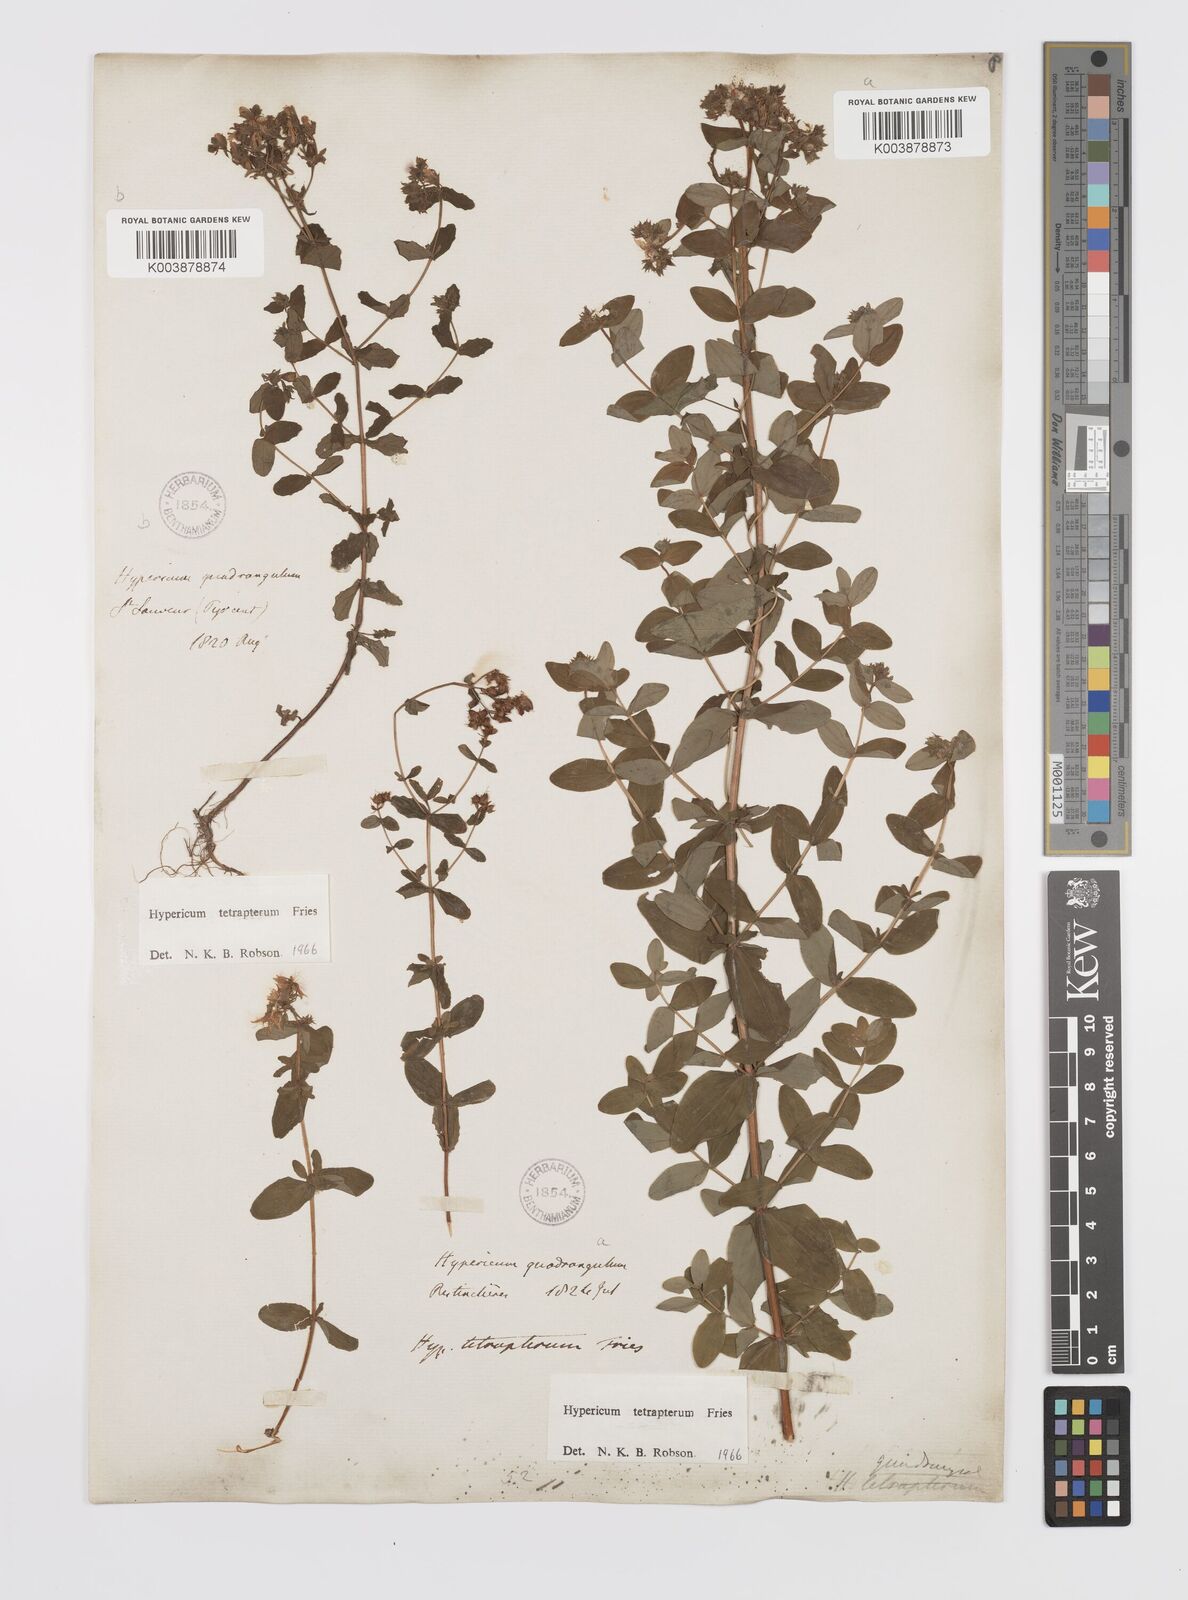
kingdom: Plantae
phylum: Tracheophyta
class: Magnoliopsida
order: Malpighiales
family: Hypericaceae
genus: Hypericum
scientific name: Hypericum tetrapterum
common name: Square-stalked st. john's-wort
